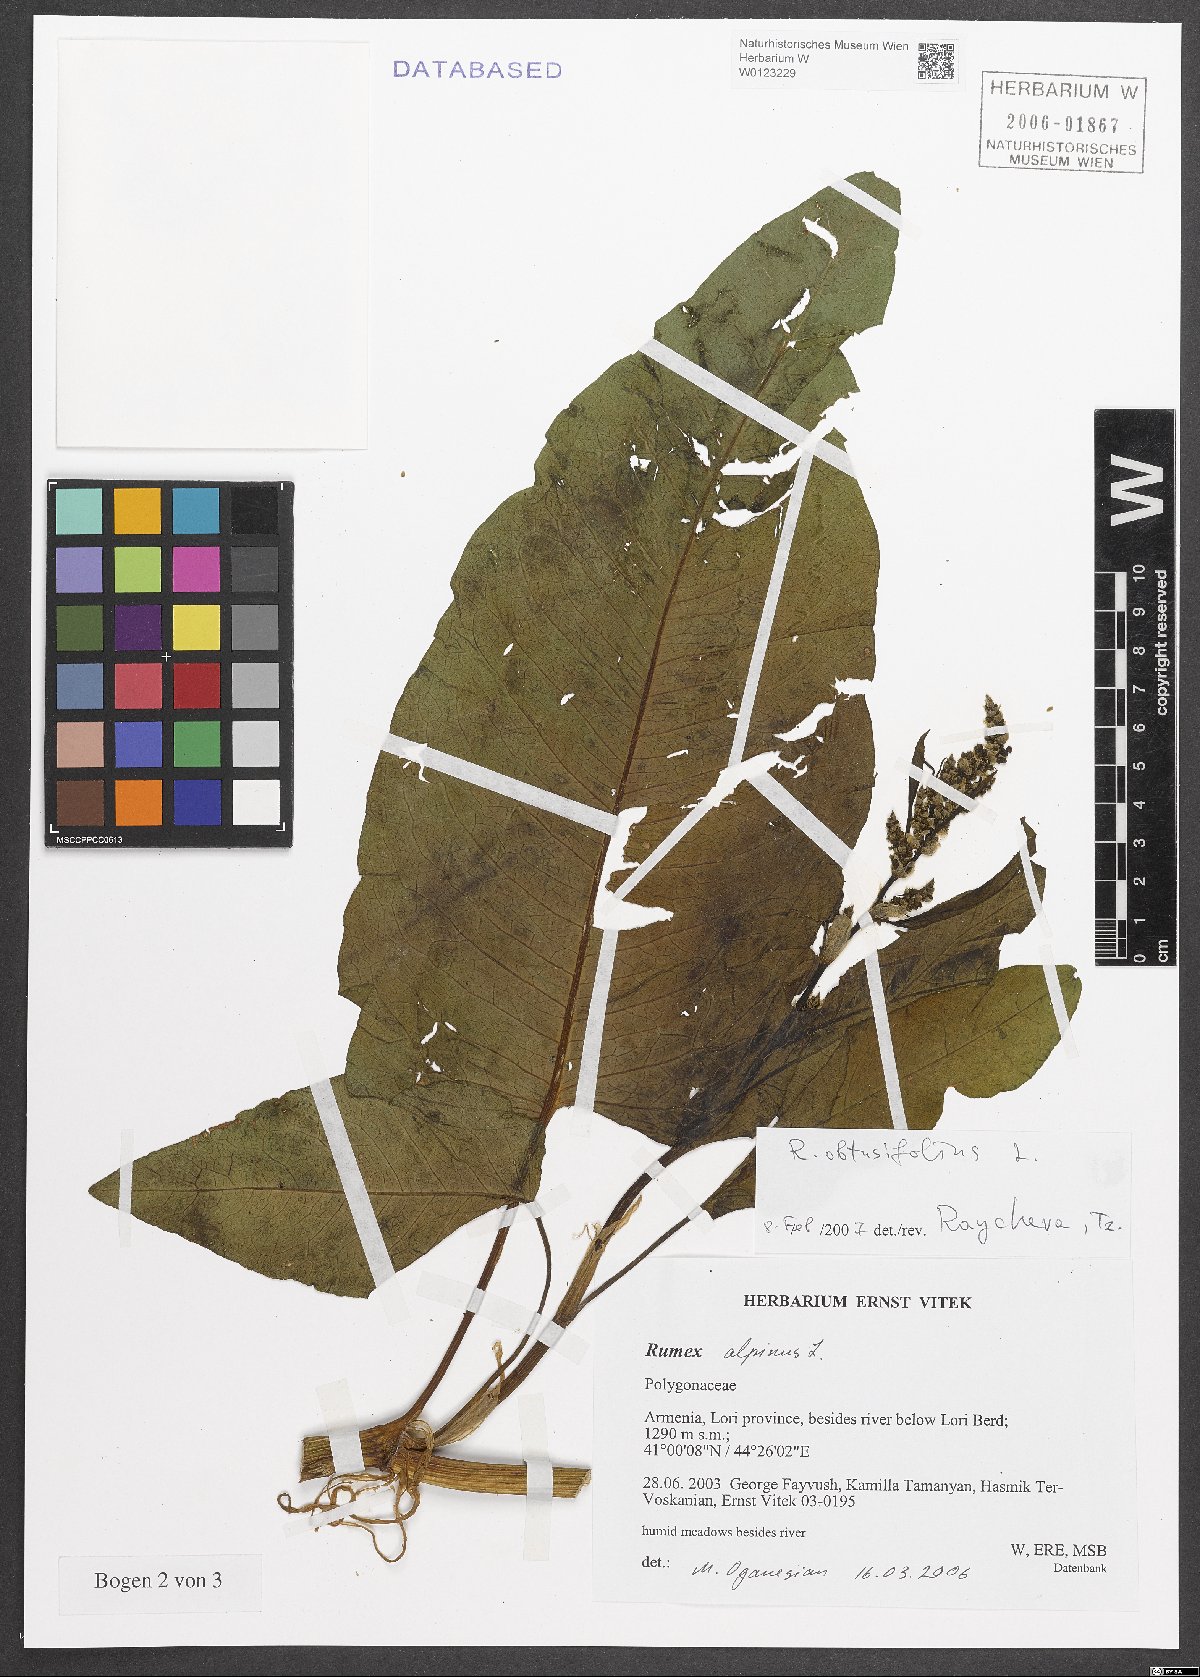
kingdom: Plantae
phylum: Tracheophyta
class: Magnoliopsida
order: Caryophyllales
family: Polygonaceae
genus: Rumex
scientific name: Rumex obtusifolius
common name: Bitter dock
